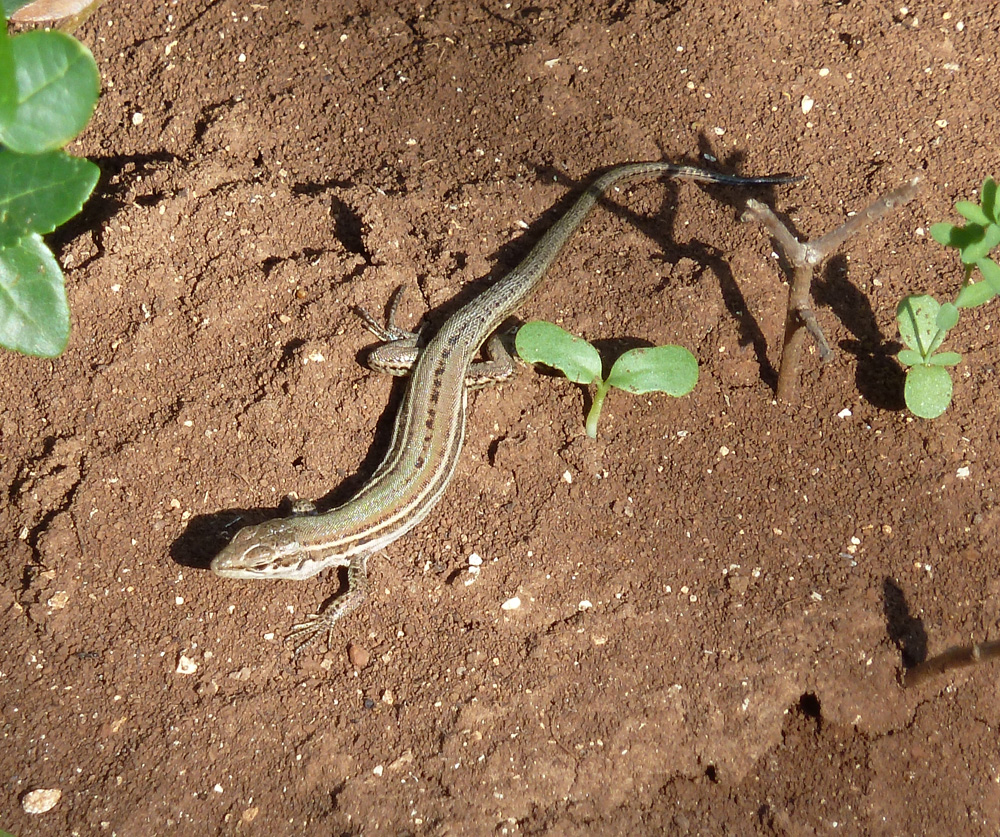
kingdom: Animalia
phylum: Chordata
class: Squamata
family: Lacertidae
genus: Podarcis
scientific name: Podarcis melisellensis
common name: Dalmatian wall lizard
